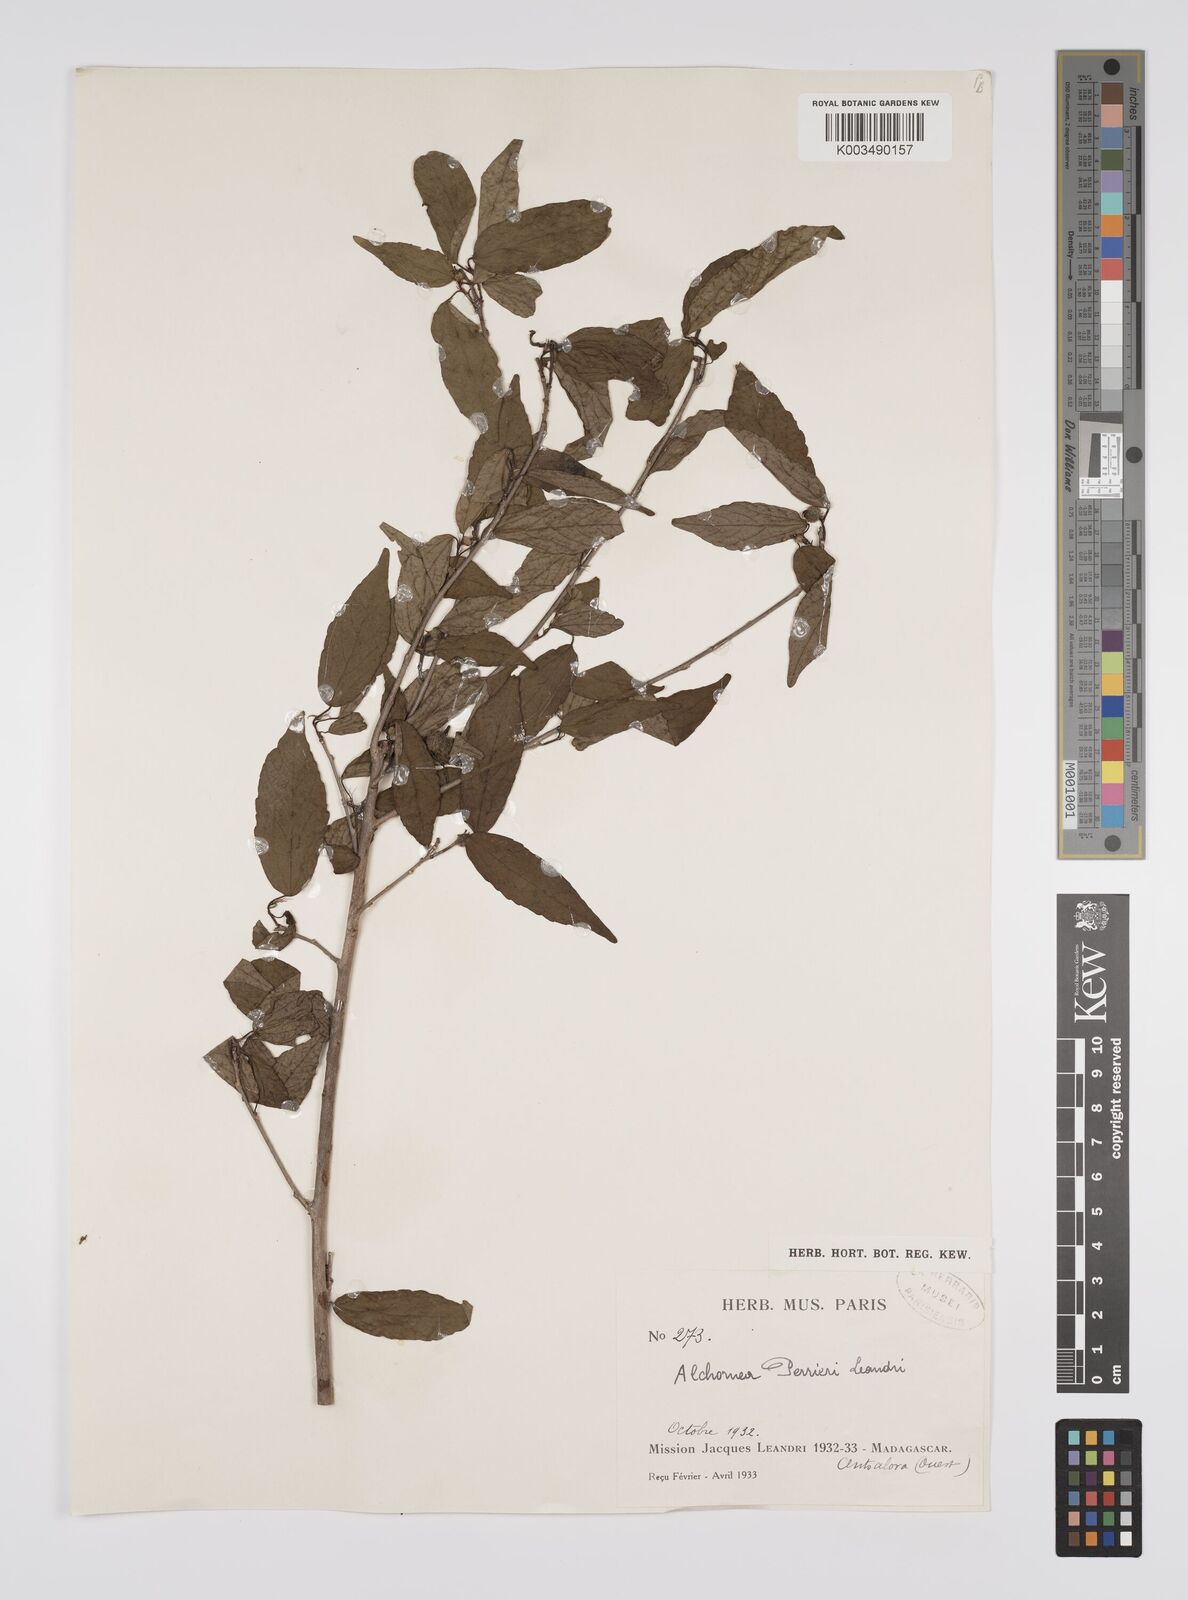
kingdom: Plantae
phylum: Tracheophyta
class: Magnoliopsida
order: Malpighiales
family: Euphorbiaceae
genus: Alchornea
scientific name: Alchornea perrieri
